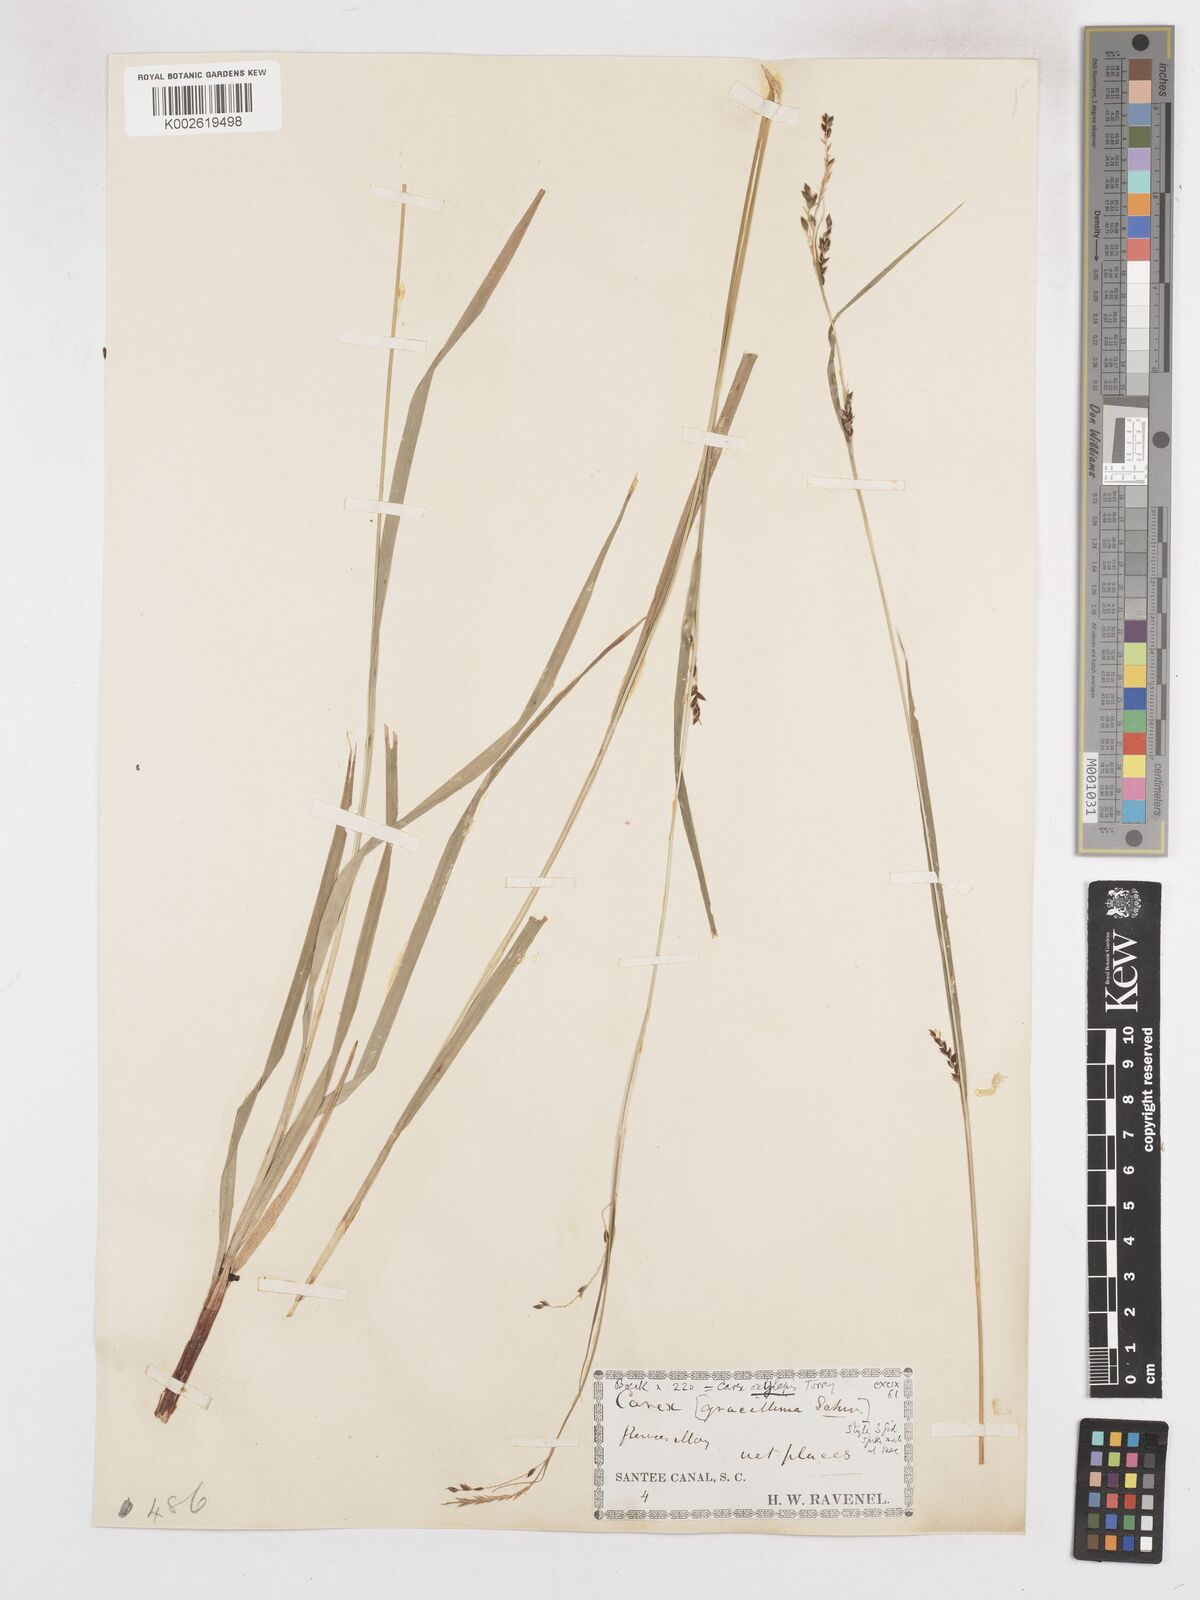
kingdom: Plantae
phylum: Tracheophyta
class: Liliopsida
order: Poales
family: Cyperaceae
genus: Carex
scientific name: Carex gracillima
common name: Graceful sedge
